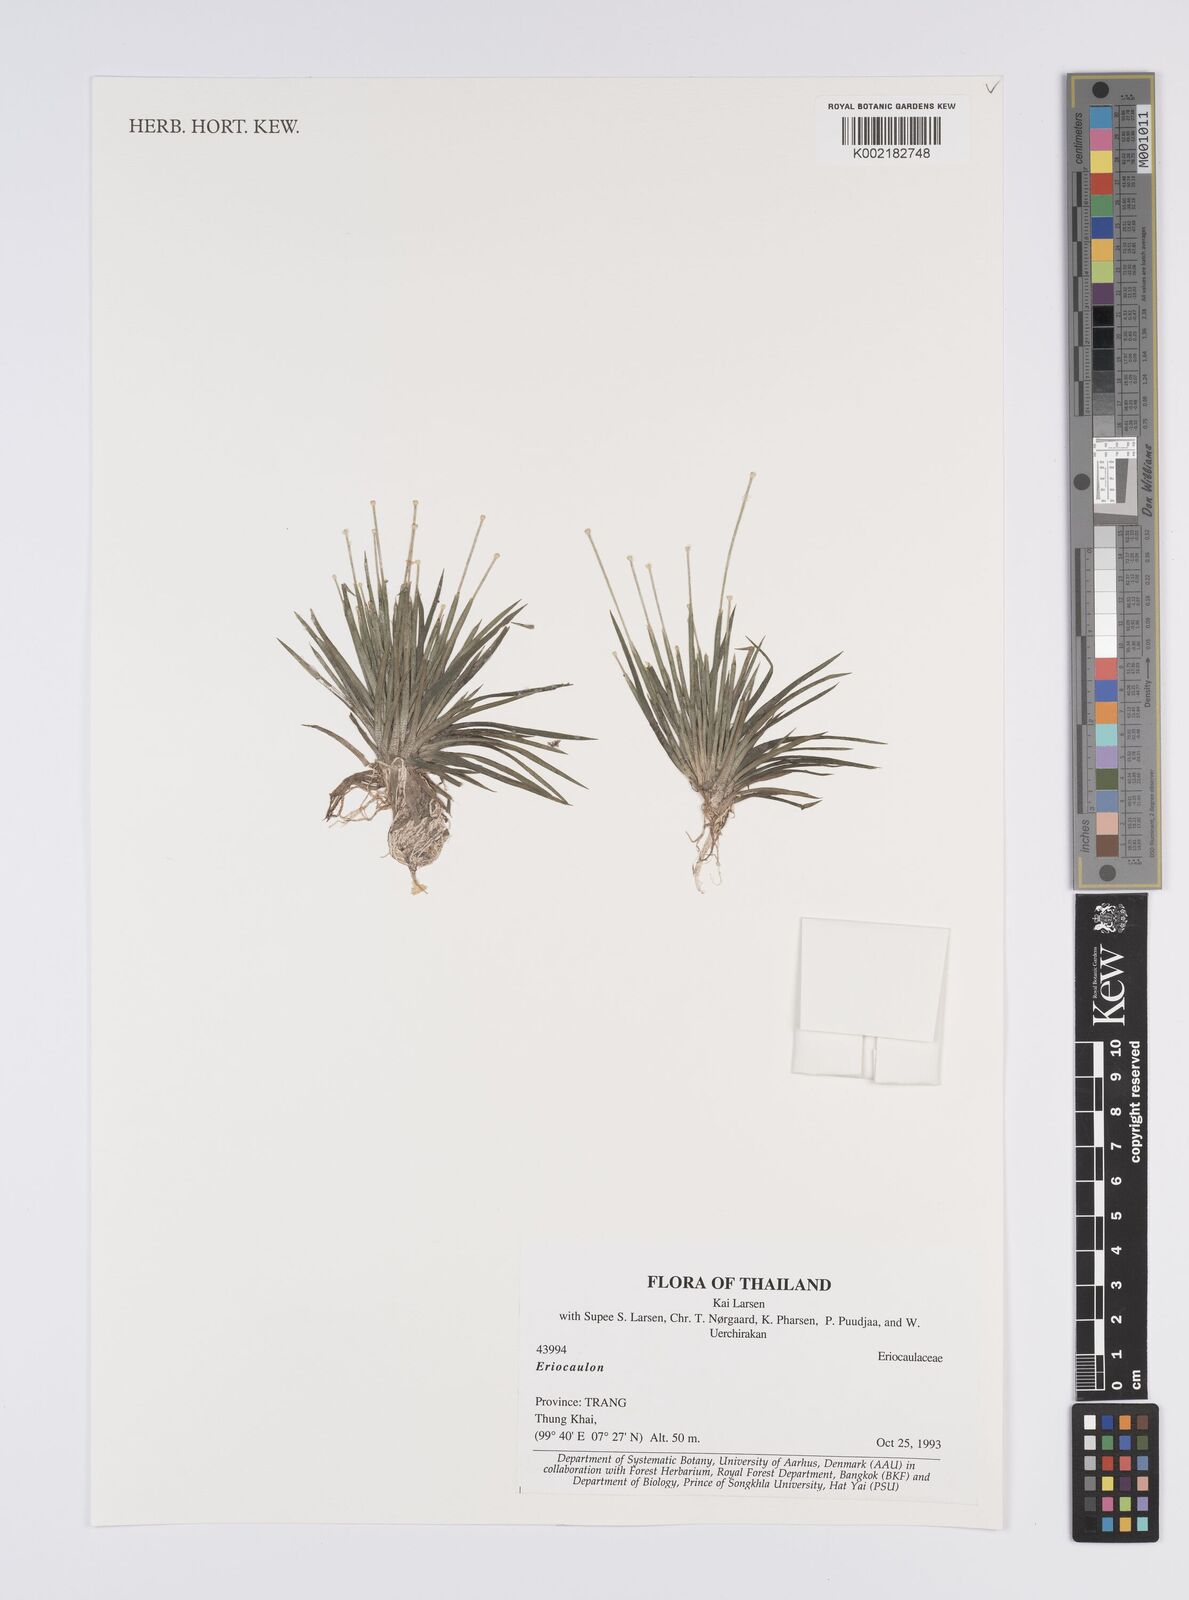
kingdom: Plantae
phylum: Tracheophyta
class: Liliopsida
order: Poales
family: Eriocaulaceae
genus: Eriocaulon
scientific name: Eriocaulon
